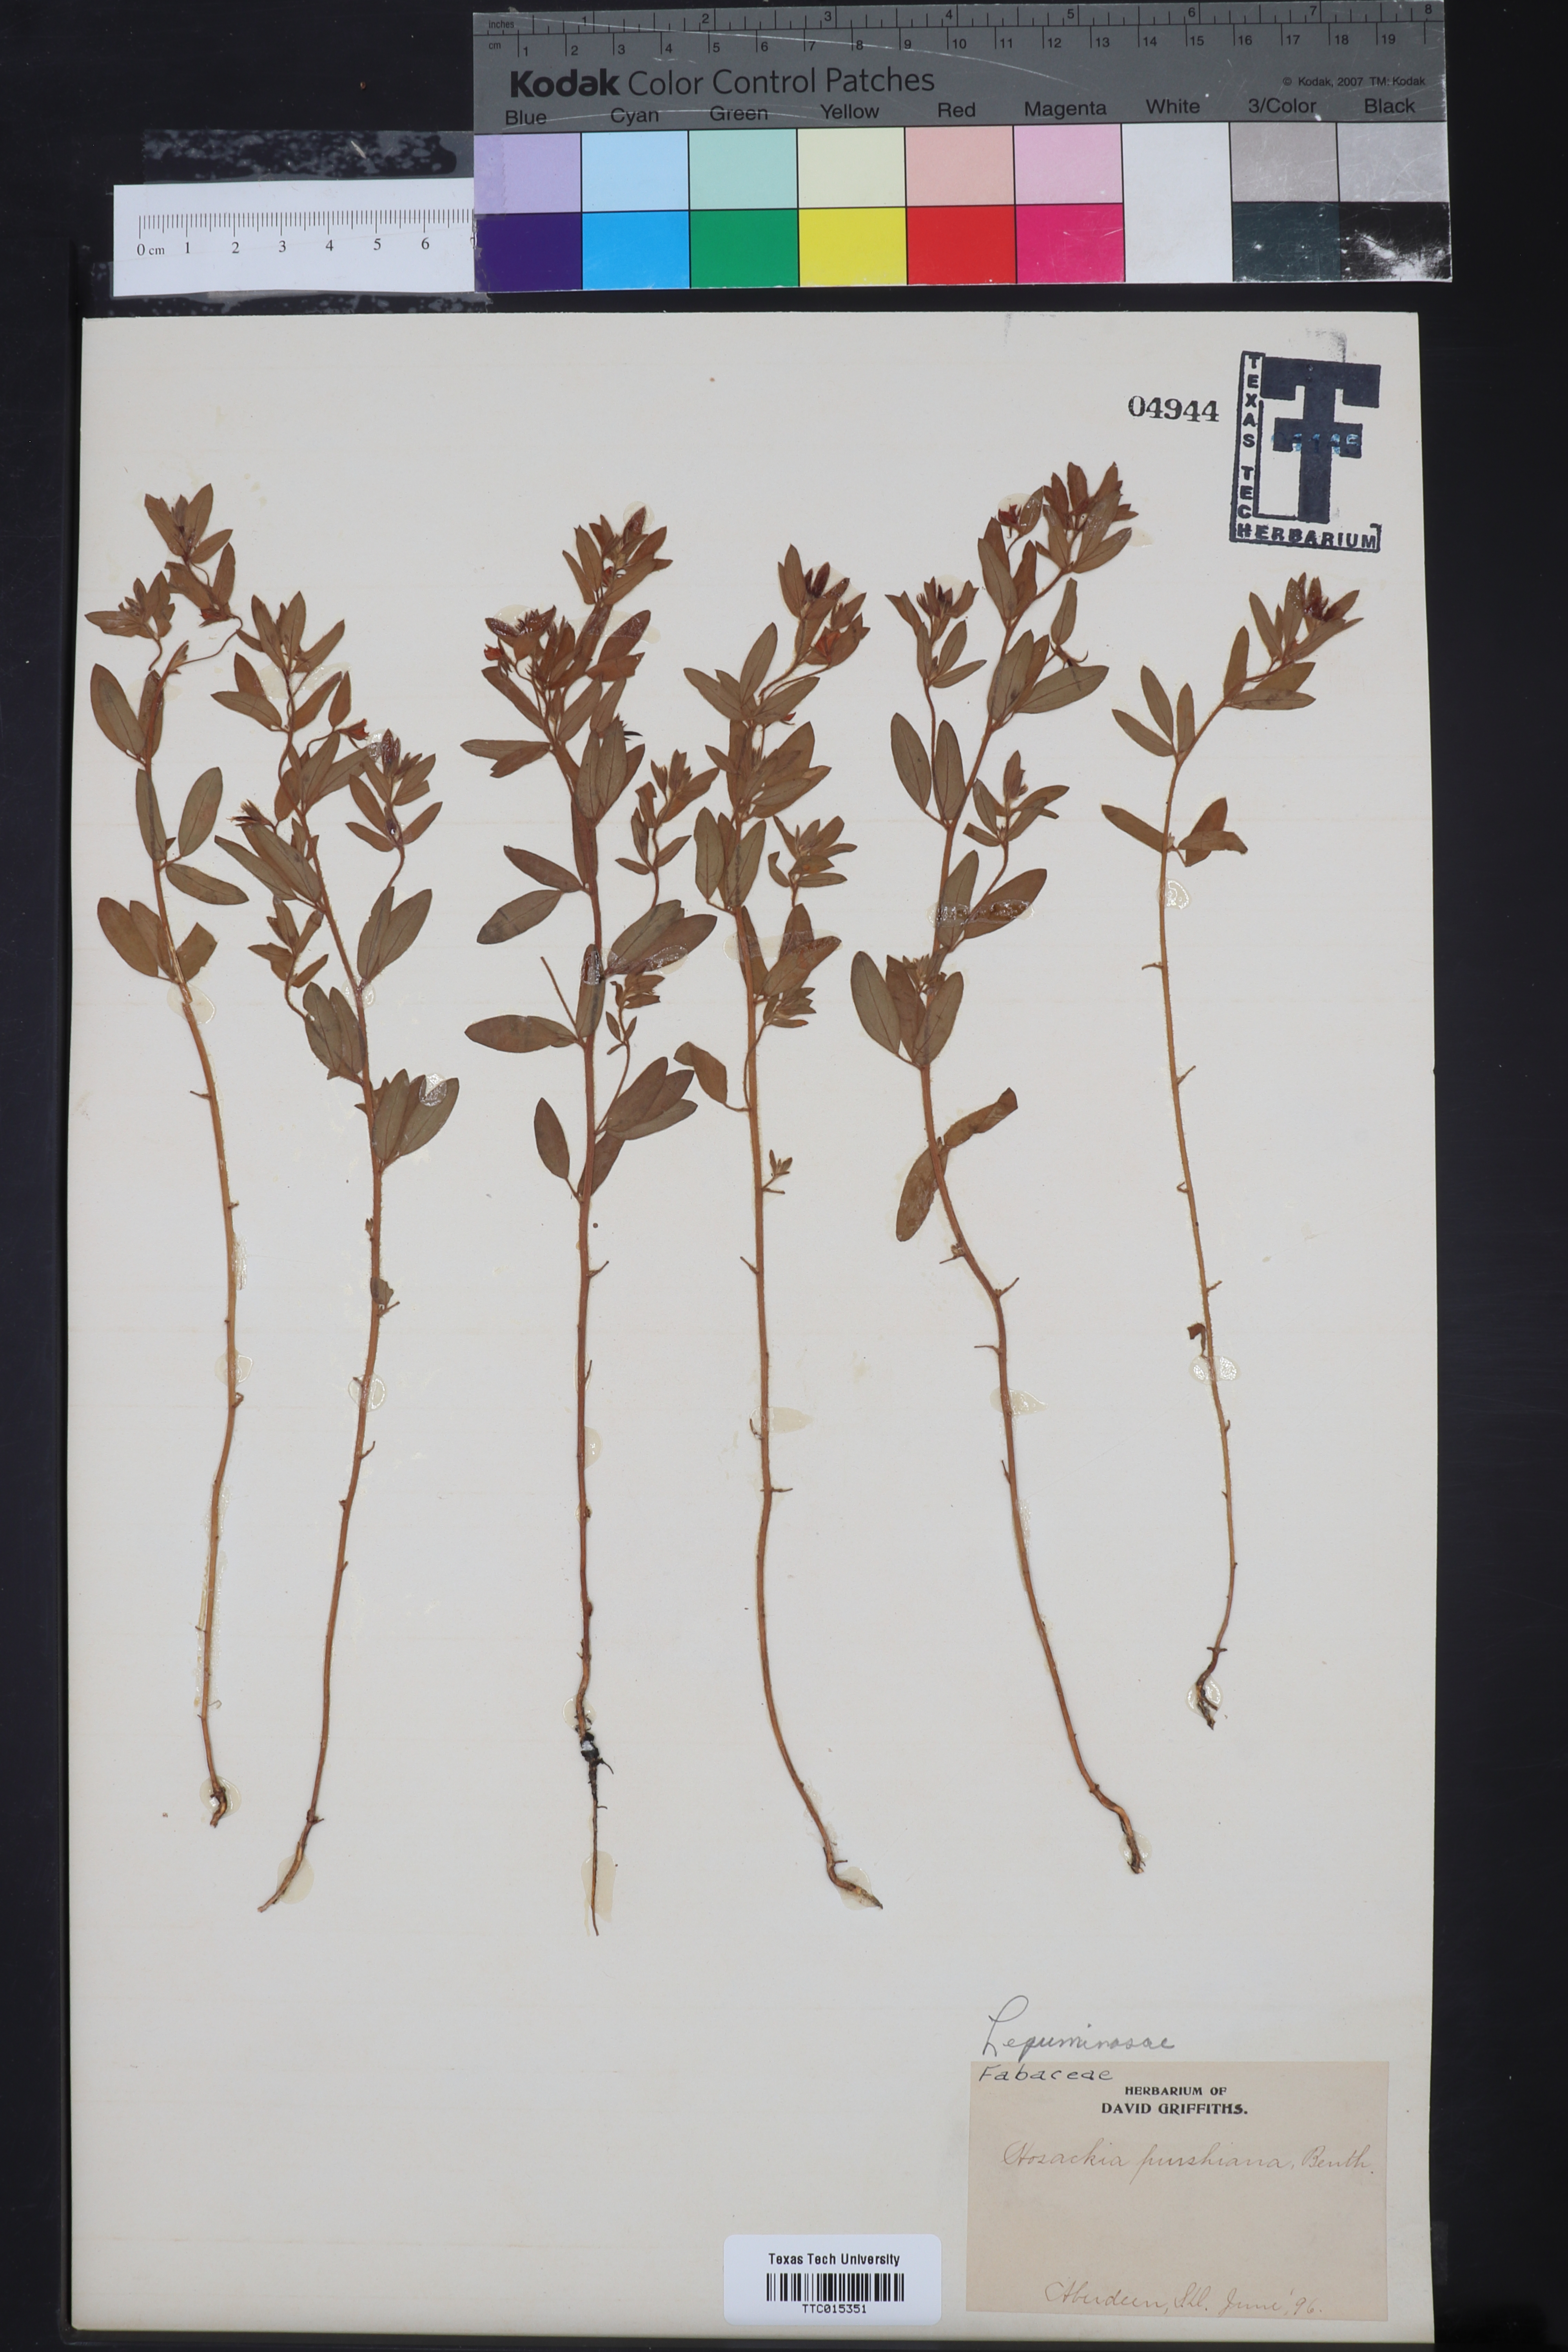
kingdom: Plantae
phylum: Tracheophyta
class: Magnoliopsida
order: Fabales
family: Fabaceae
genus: Acmispon
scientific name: Acmispon americanus
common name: American bird's-foot trefoil
